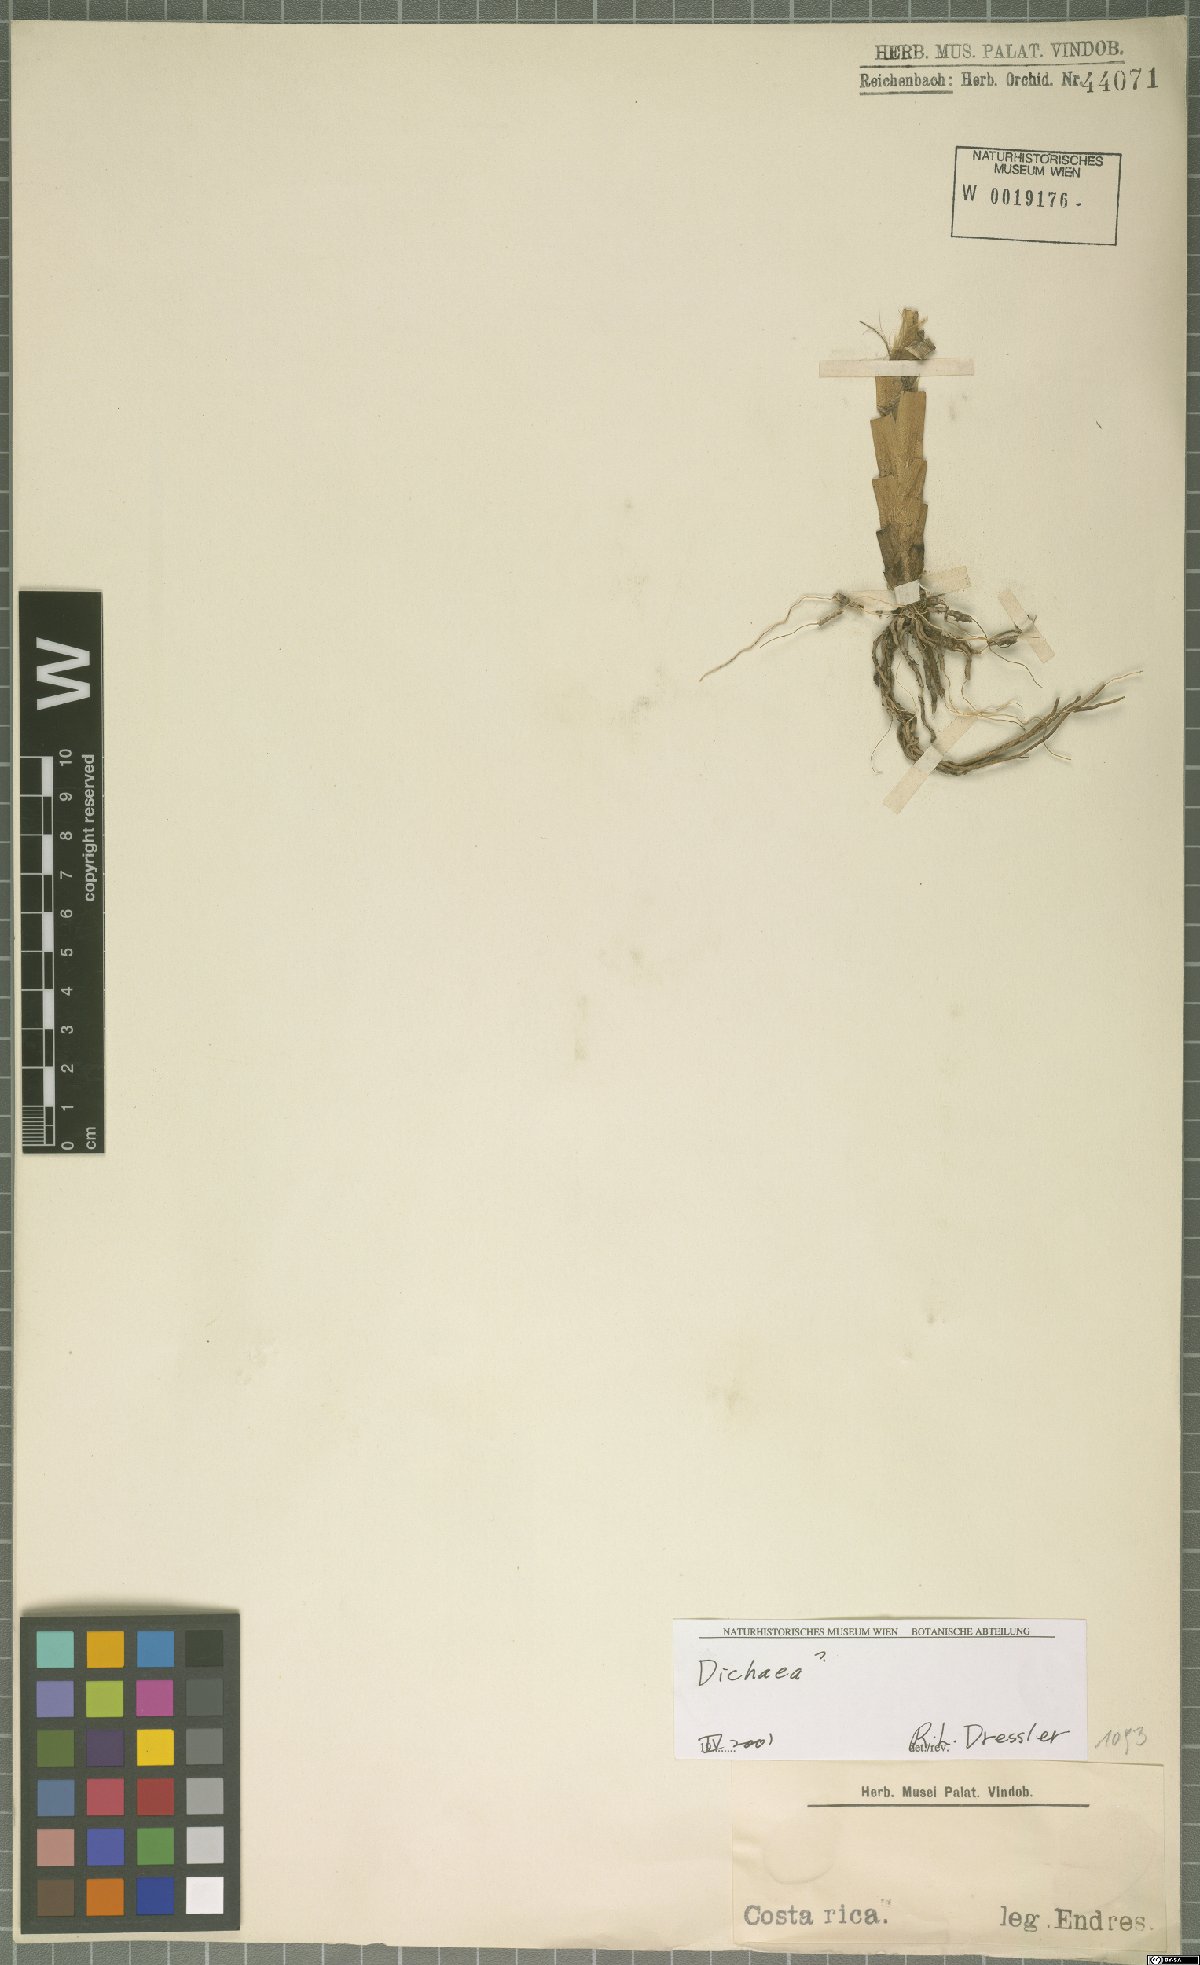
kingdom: Plantae
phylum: Tracheophyta
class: Liliopsida
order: Asparagales
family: Orchidaceae
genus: Dichaea
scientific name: Dichaea
